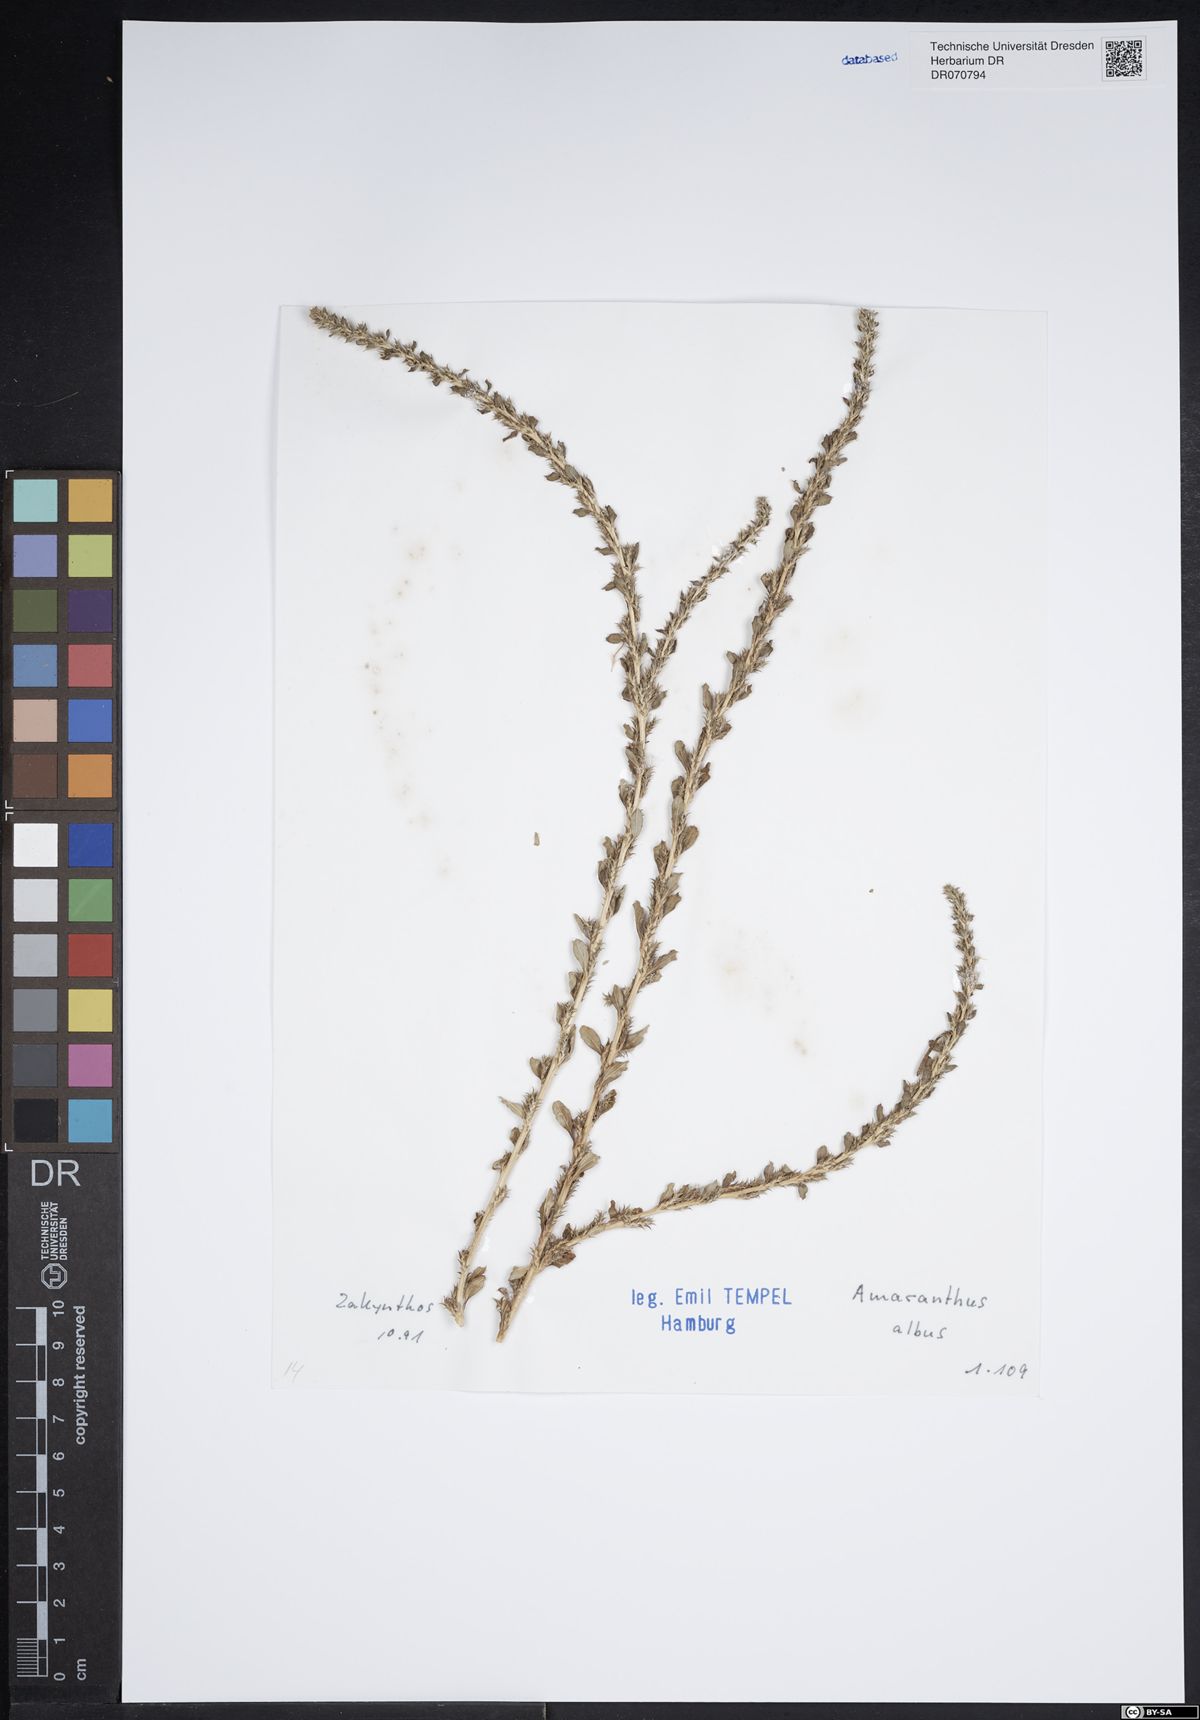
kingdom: Plantae
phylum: Tracheophyta
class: Magnoliopsida
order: Caryophyllales
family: Amaranthaceae
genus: Amaranthus
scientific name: Amaranthus albus
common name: White pigweed
